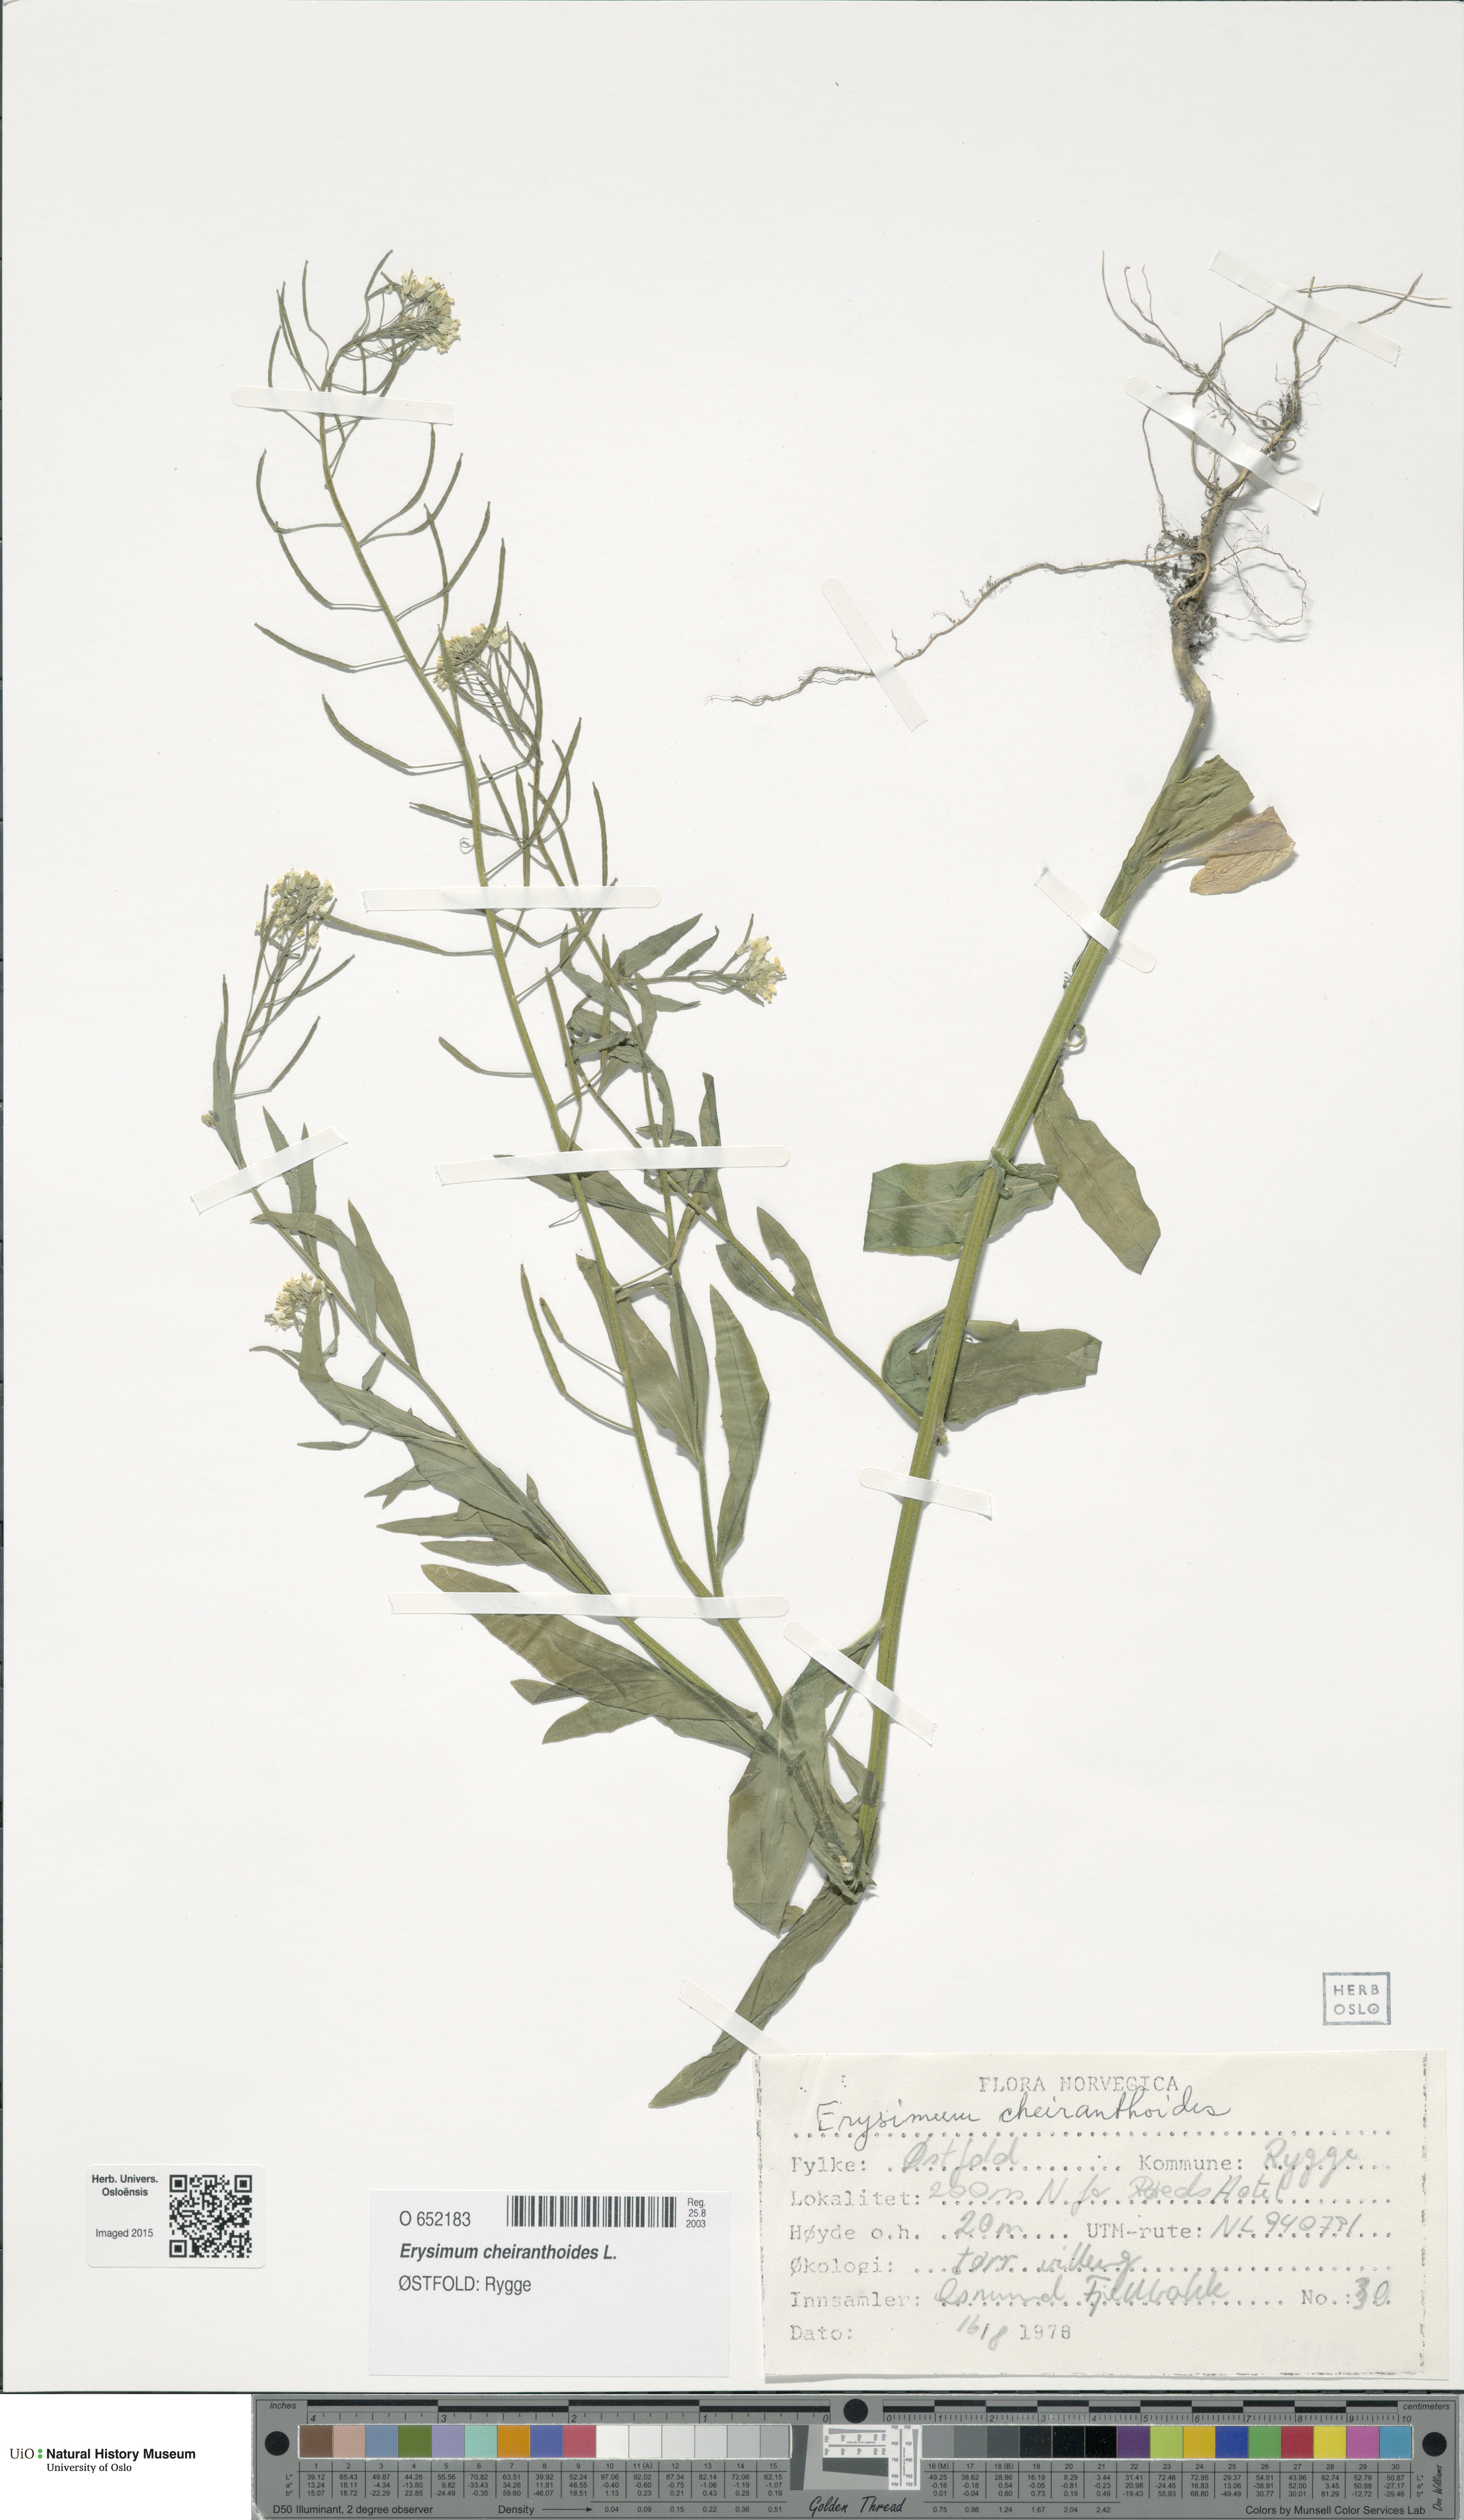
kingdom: Plantae
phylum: Tracheophyta
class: Magnoliopsida
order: Brassicales
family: Brassicaceae
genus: Erysimum
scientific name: Erysimum cheiranthoides
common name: Treacle mustard
